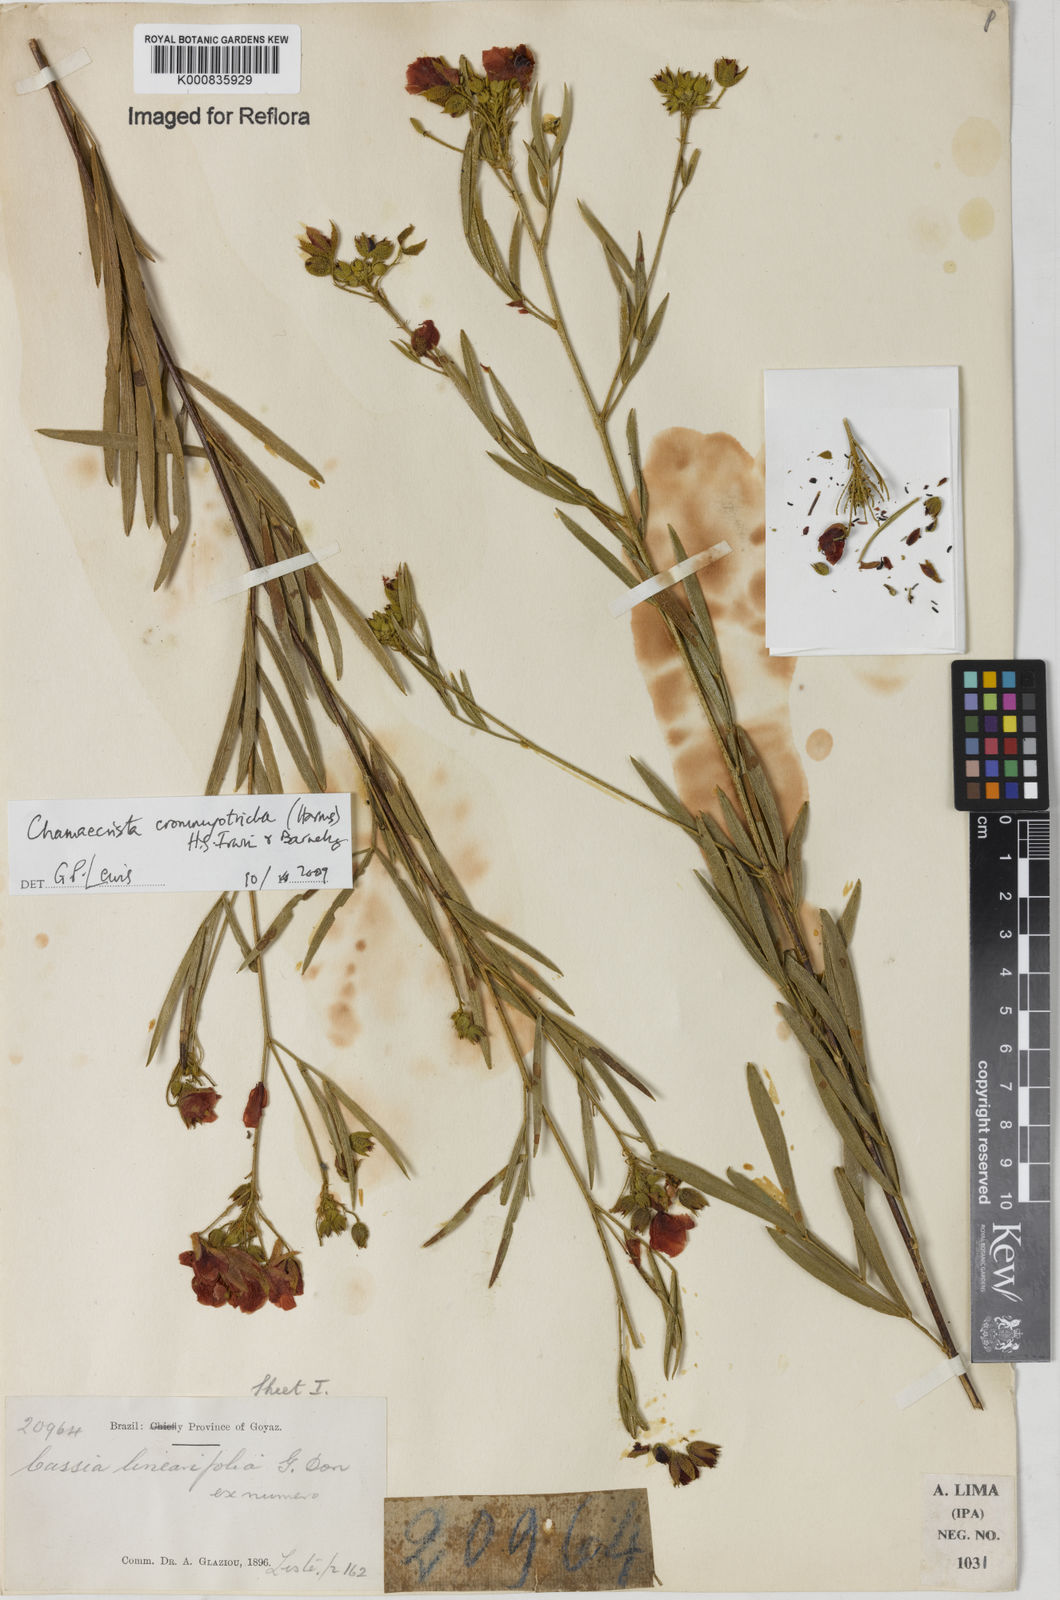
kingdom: Plantae
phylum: Tracheophyta
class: Magnoliopsida
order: Fabales
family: Fabaceae
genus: Chamaecrista
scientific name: Chamaecrista crommyotricha
